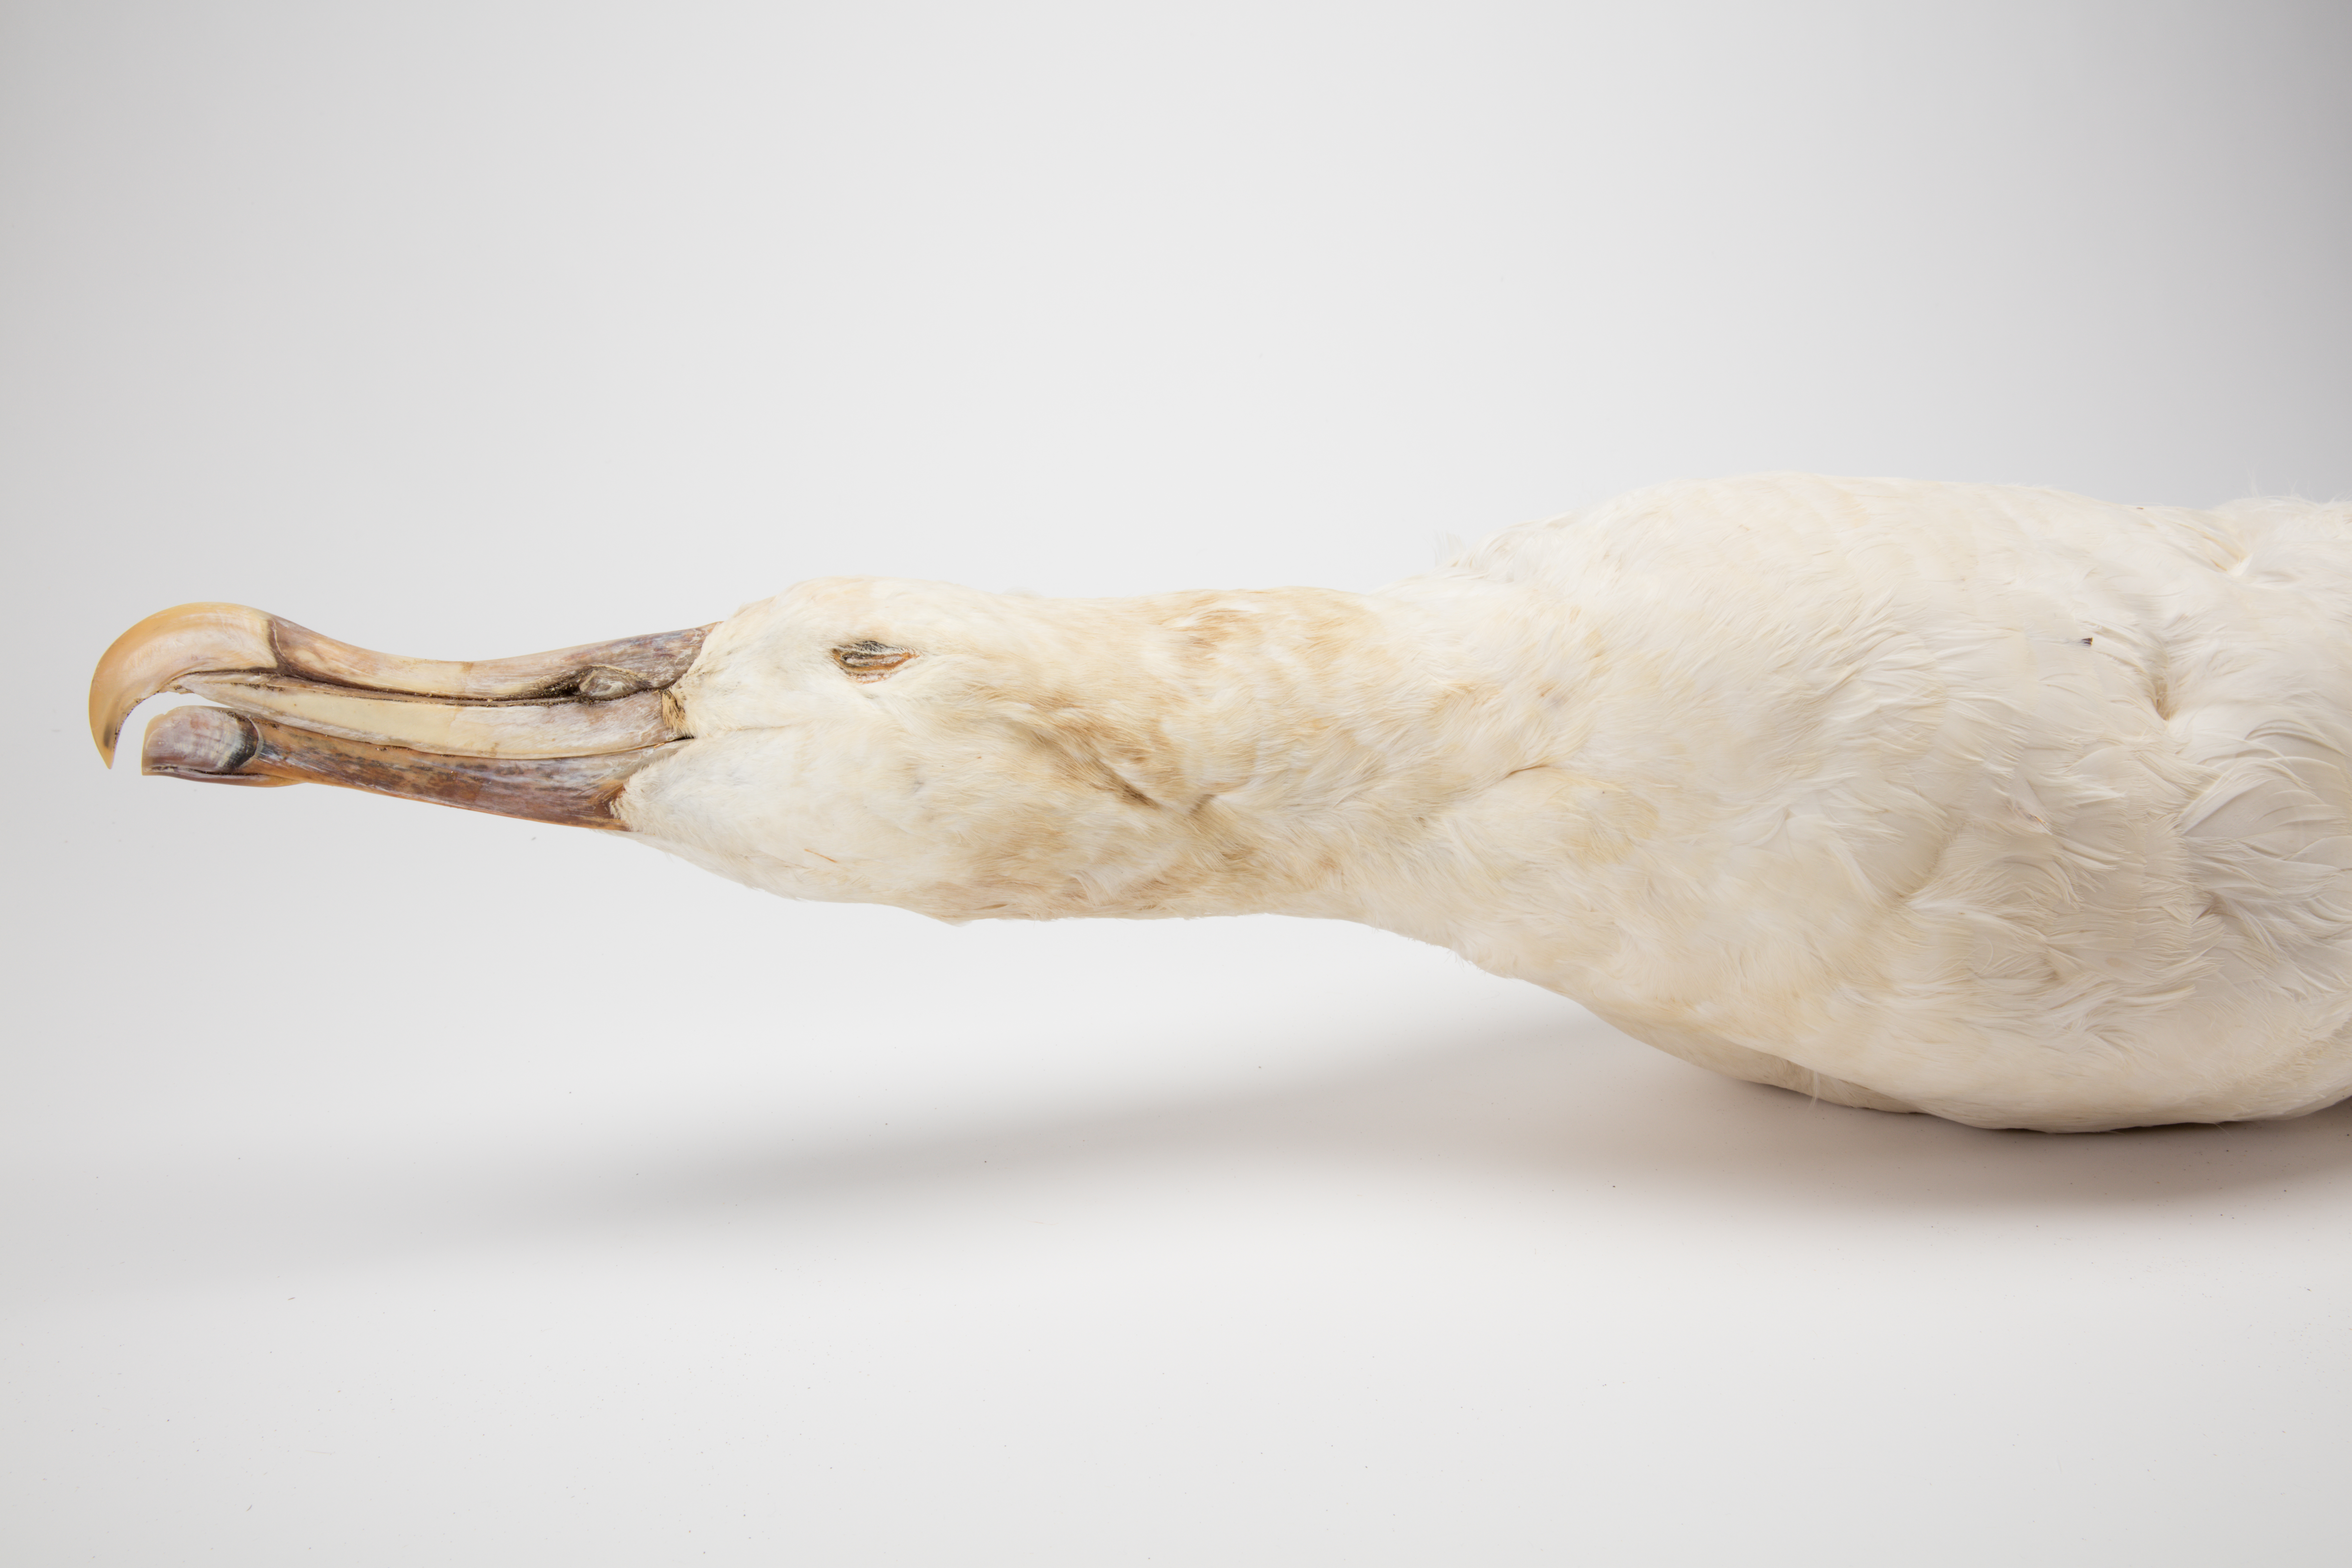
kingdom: Animalia
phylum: Chordata
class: Aves
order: Procellariiformes
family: Diomedeidae
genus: Diomedea
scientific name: Diomedea antipodensis
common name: Antipodean albatross
